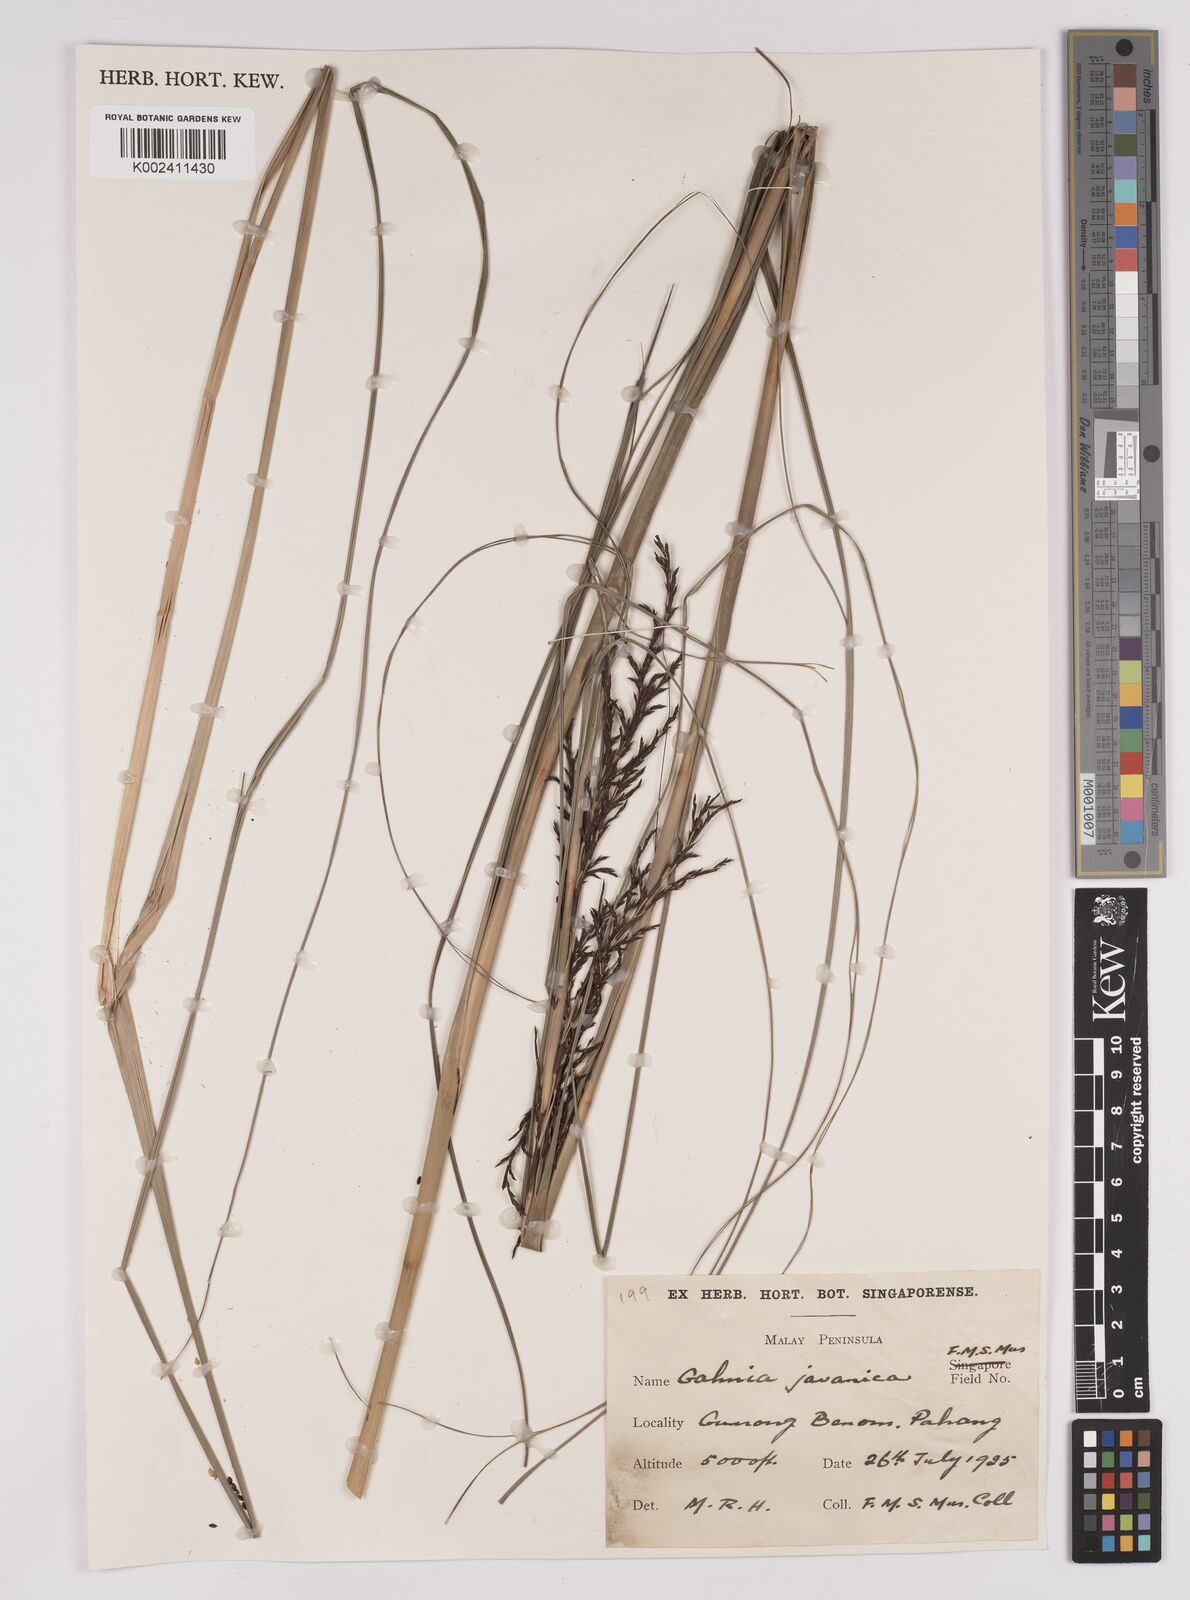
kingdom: Plantae
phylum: Tracheophyta
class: Liliopsida
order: Poales
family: Cyperaceae
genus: Gahnia
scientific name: Gahnia baniensis
